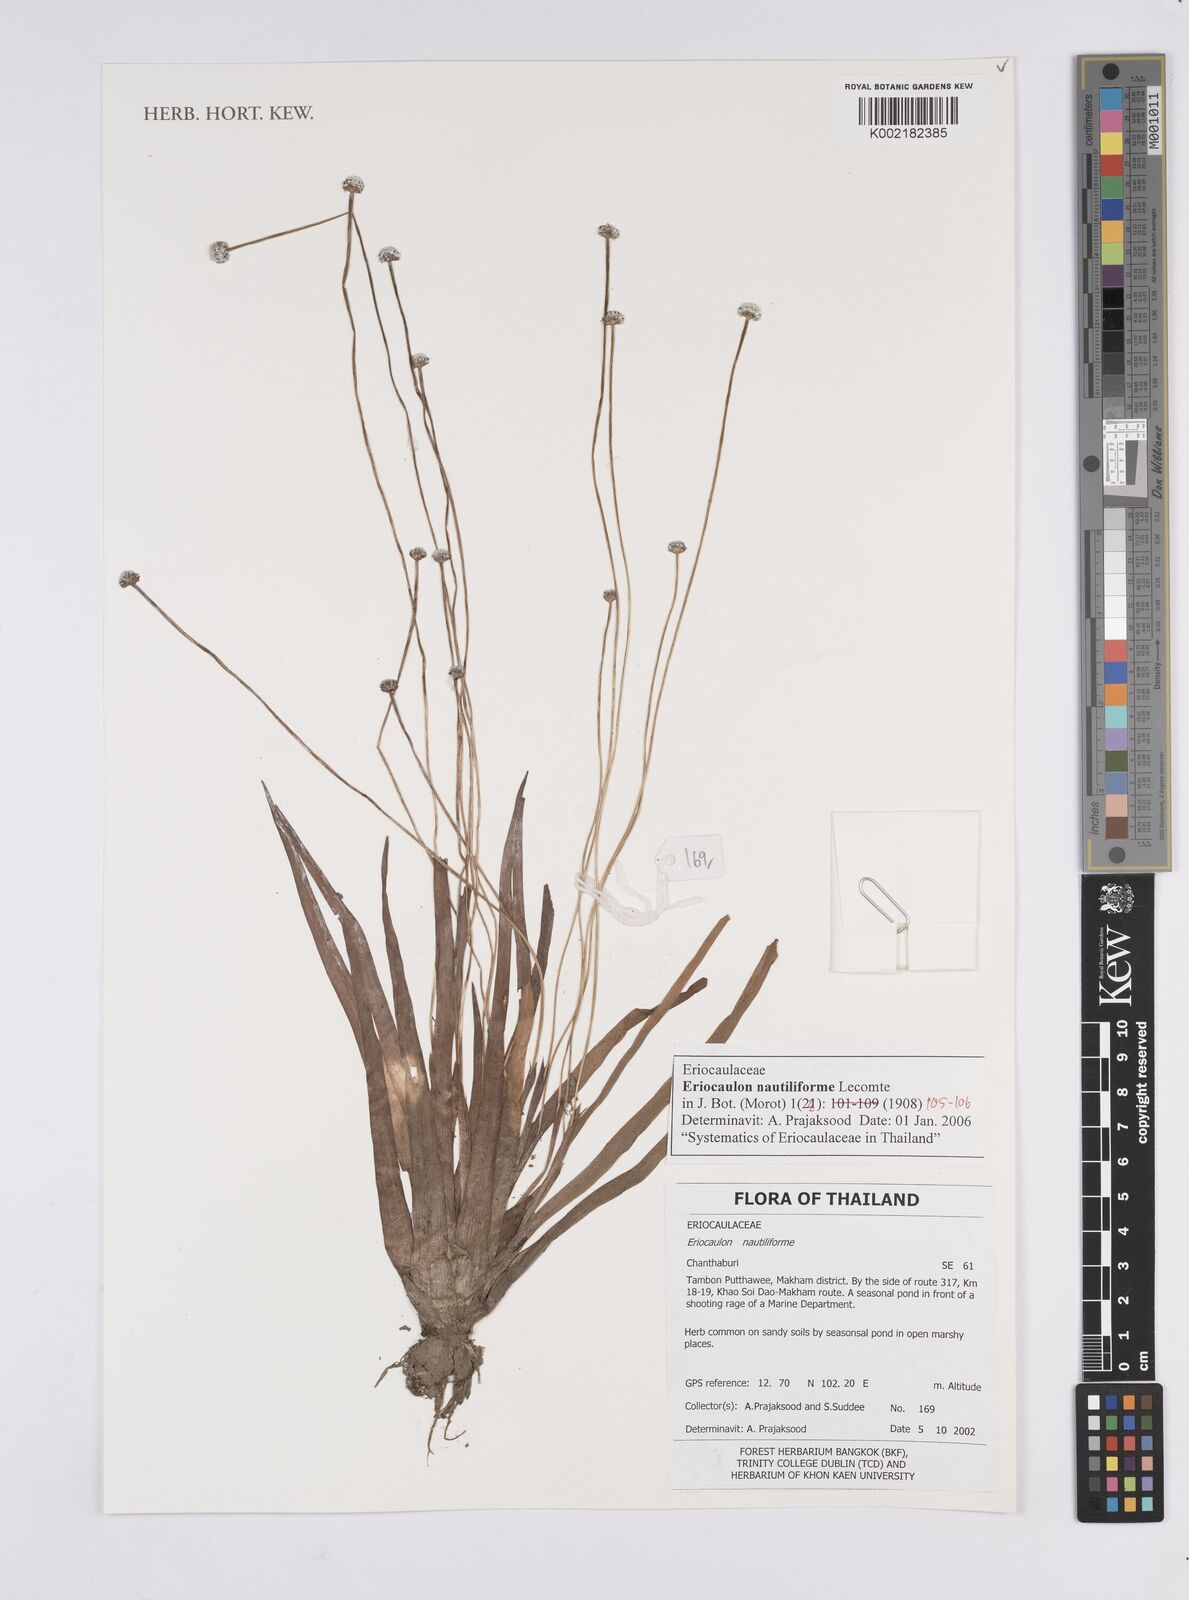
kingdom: Plantae
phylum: Tracheophyta
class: Liliopsida
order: Poales
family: Eriocaulaceae
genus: Eriocaulon
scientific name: Eriocaulon nautiliforme
